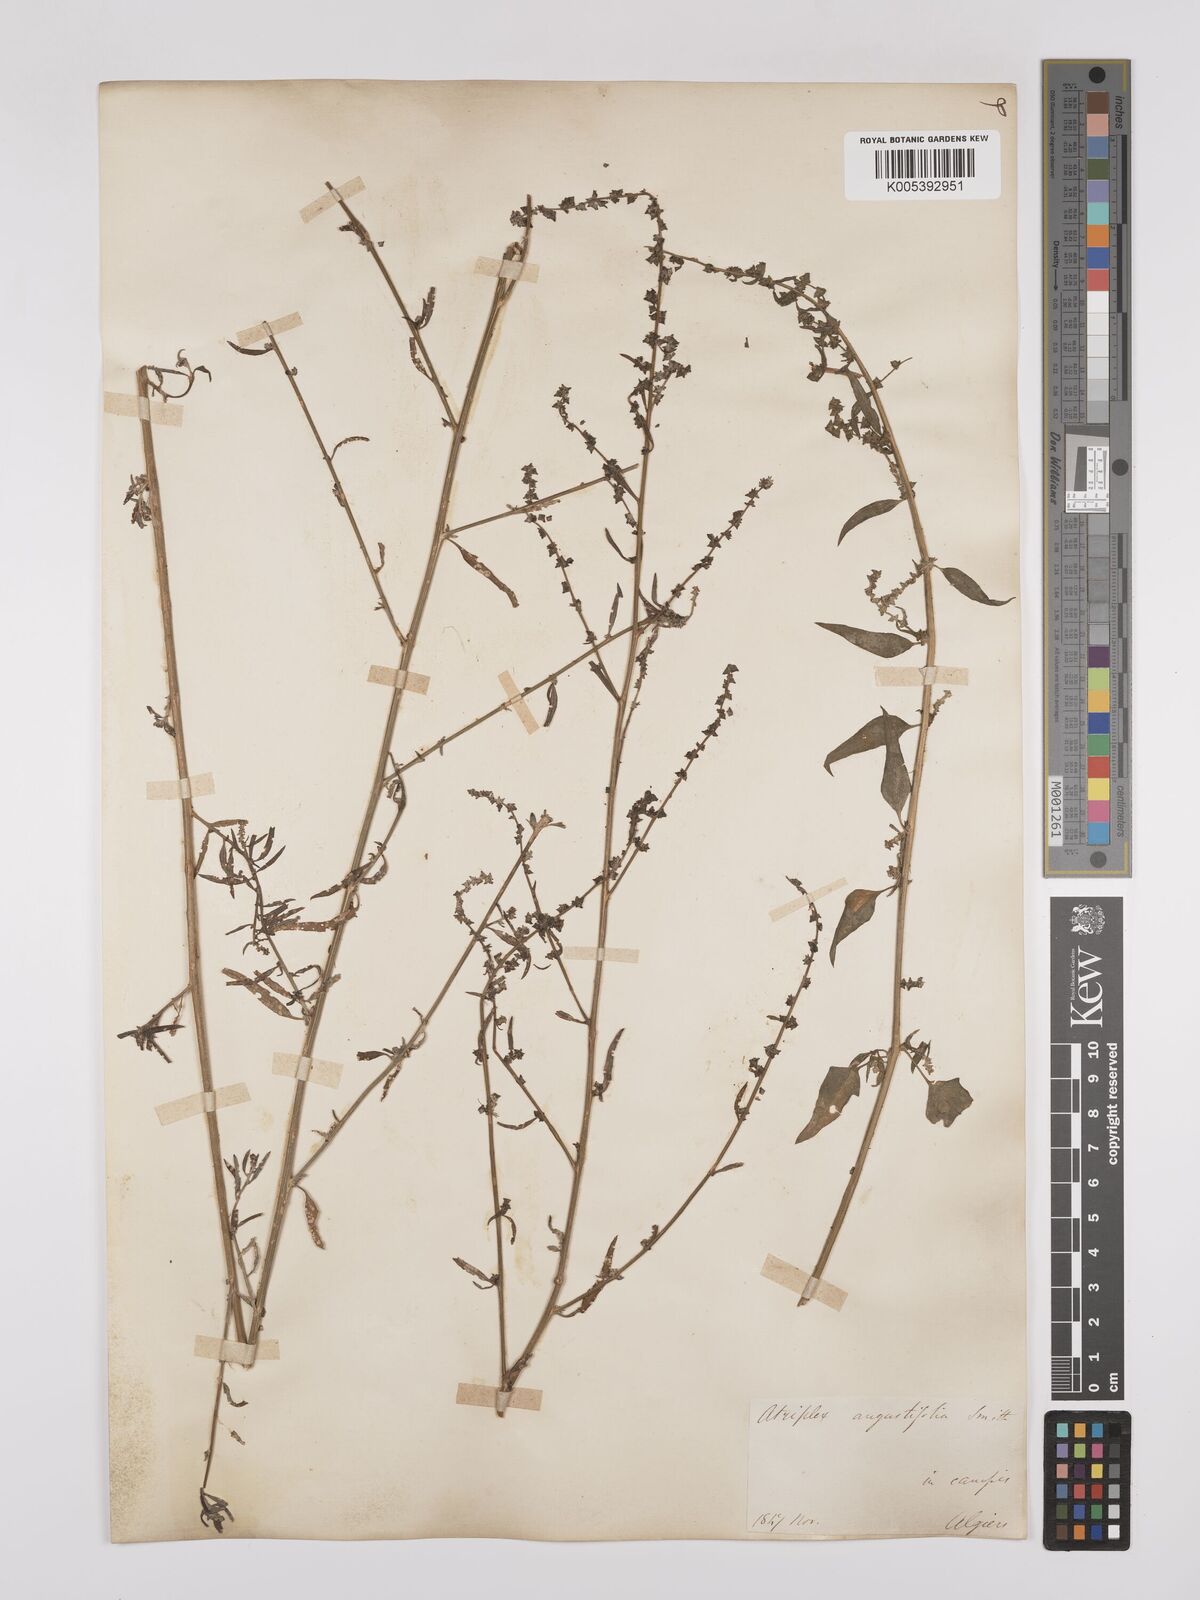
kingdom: Plantae
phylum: Tracheophyta
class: Magnoliopsida
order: Caryophyllales
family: Amaranthaceae
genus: Atriplex
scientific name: Atriplex patula
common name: Common orache
